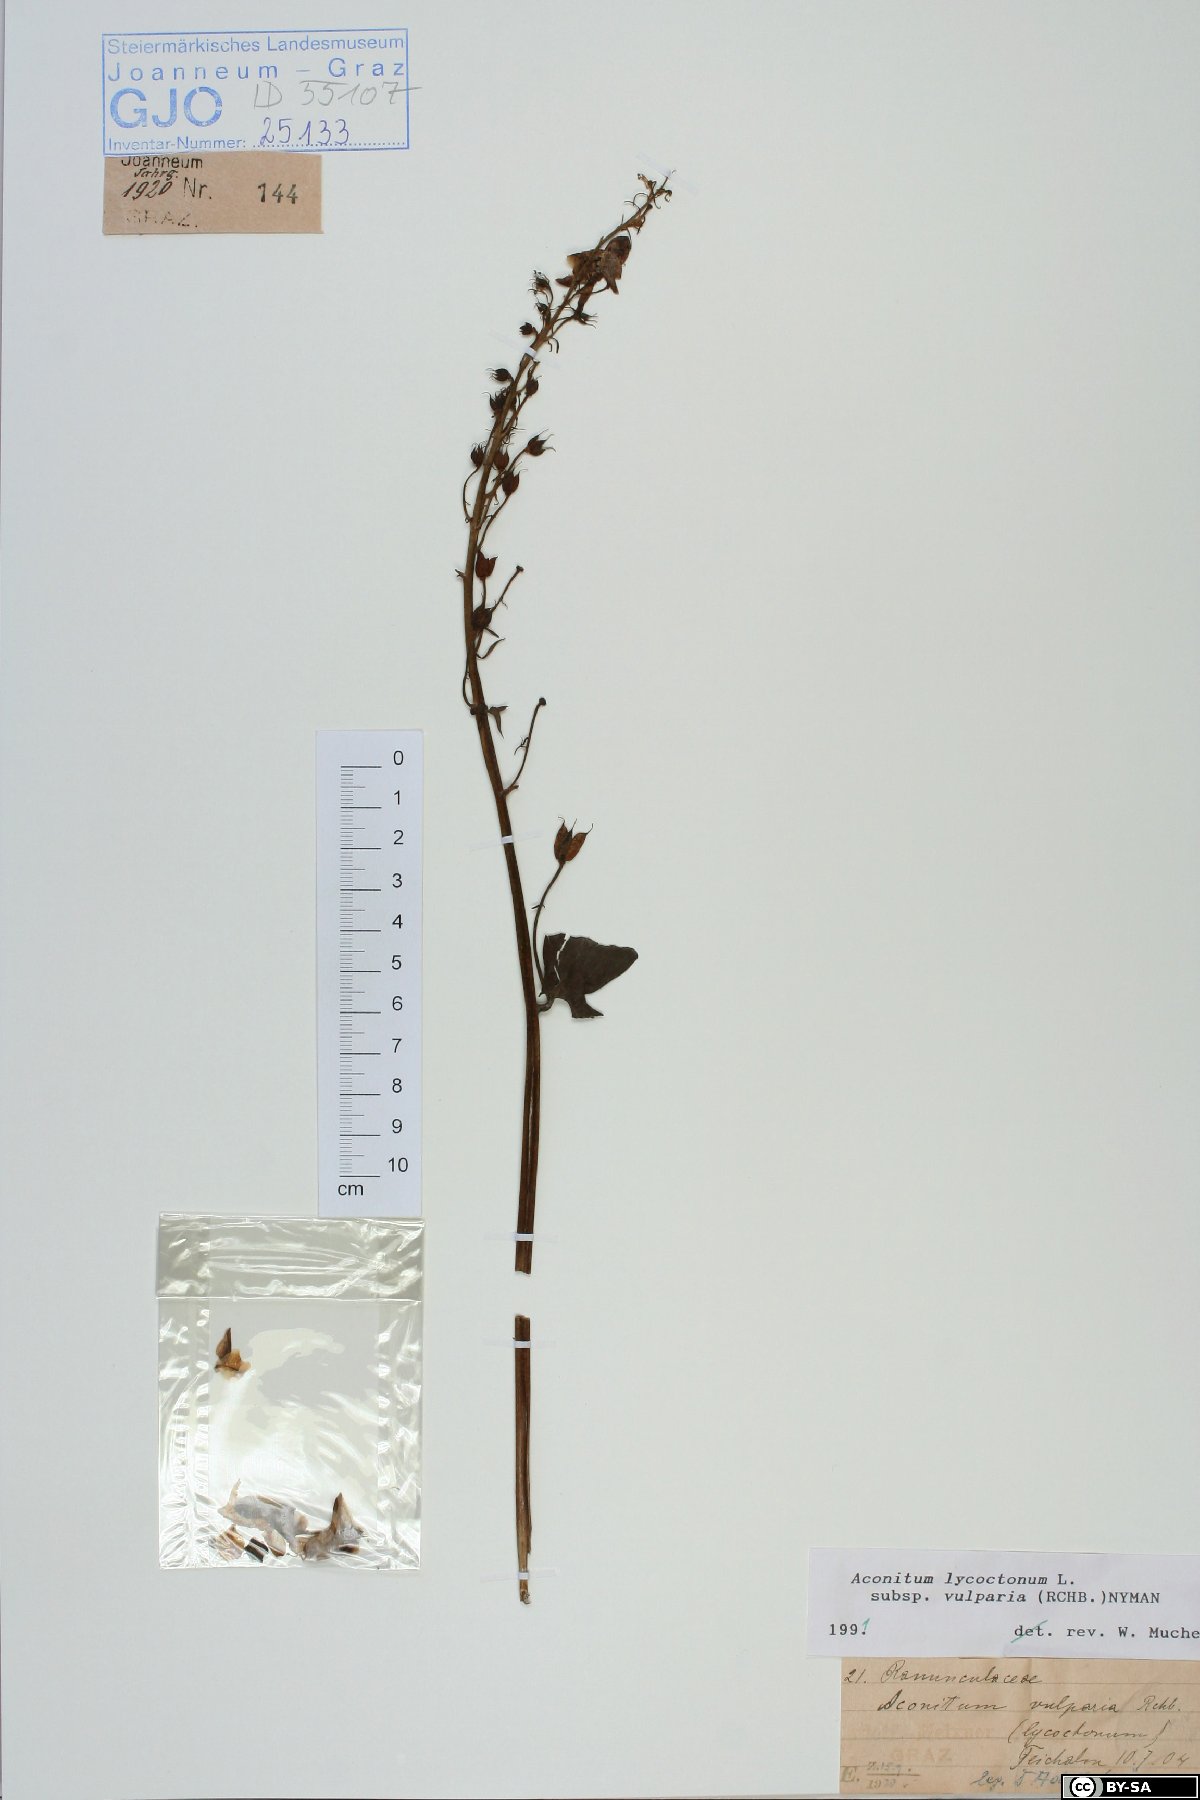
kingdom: Plantae
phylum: Tracheophyta
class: Magnoliopsida
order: Ranunculales
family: Ranunculaceae
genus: Aconitum
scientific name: Aconitum lycoctonum
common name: Wolf's-bane
